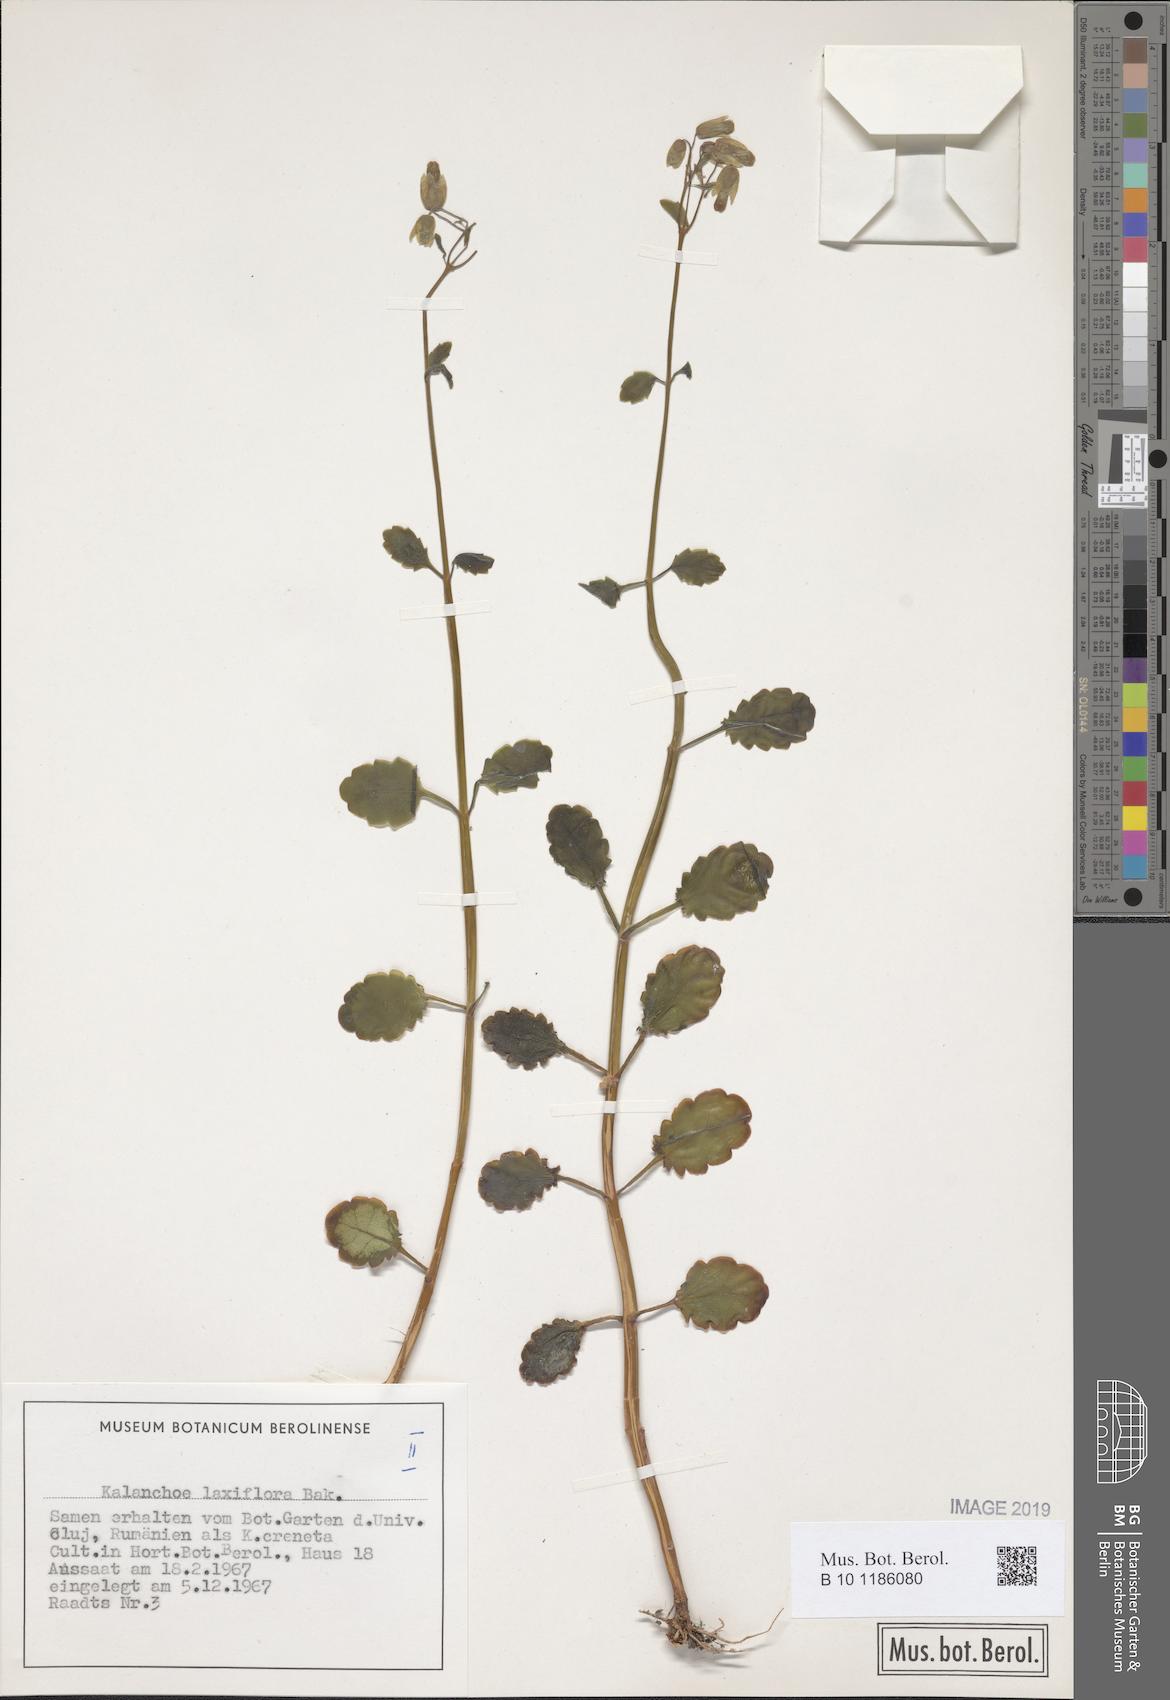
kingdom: Plantae
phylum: Tracheophyta
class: Magnoliopsida
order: Saxifragales
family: Crassulaceae
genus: Kalanchoe
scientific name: Kalanchoe laxiflora
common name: Milky widow's thrill
